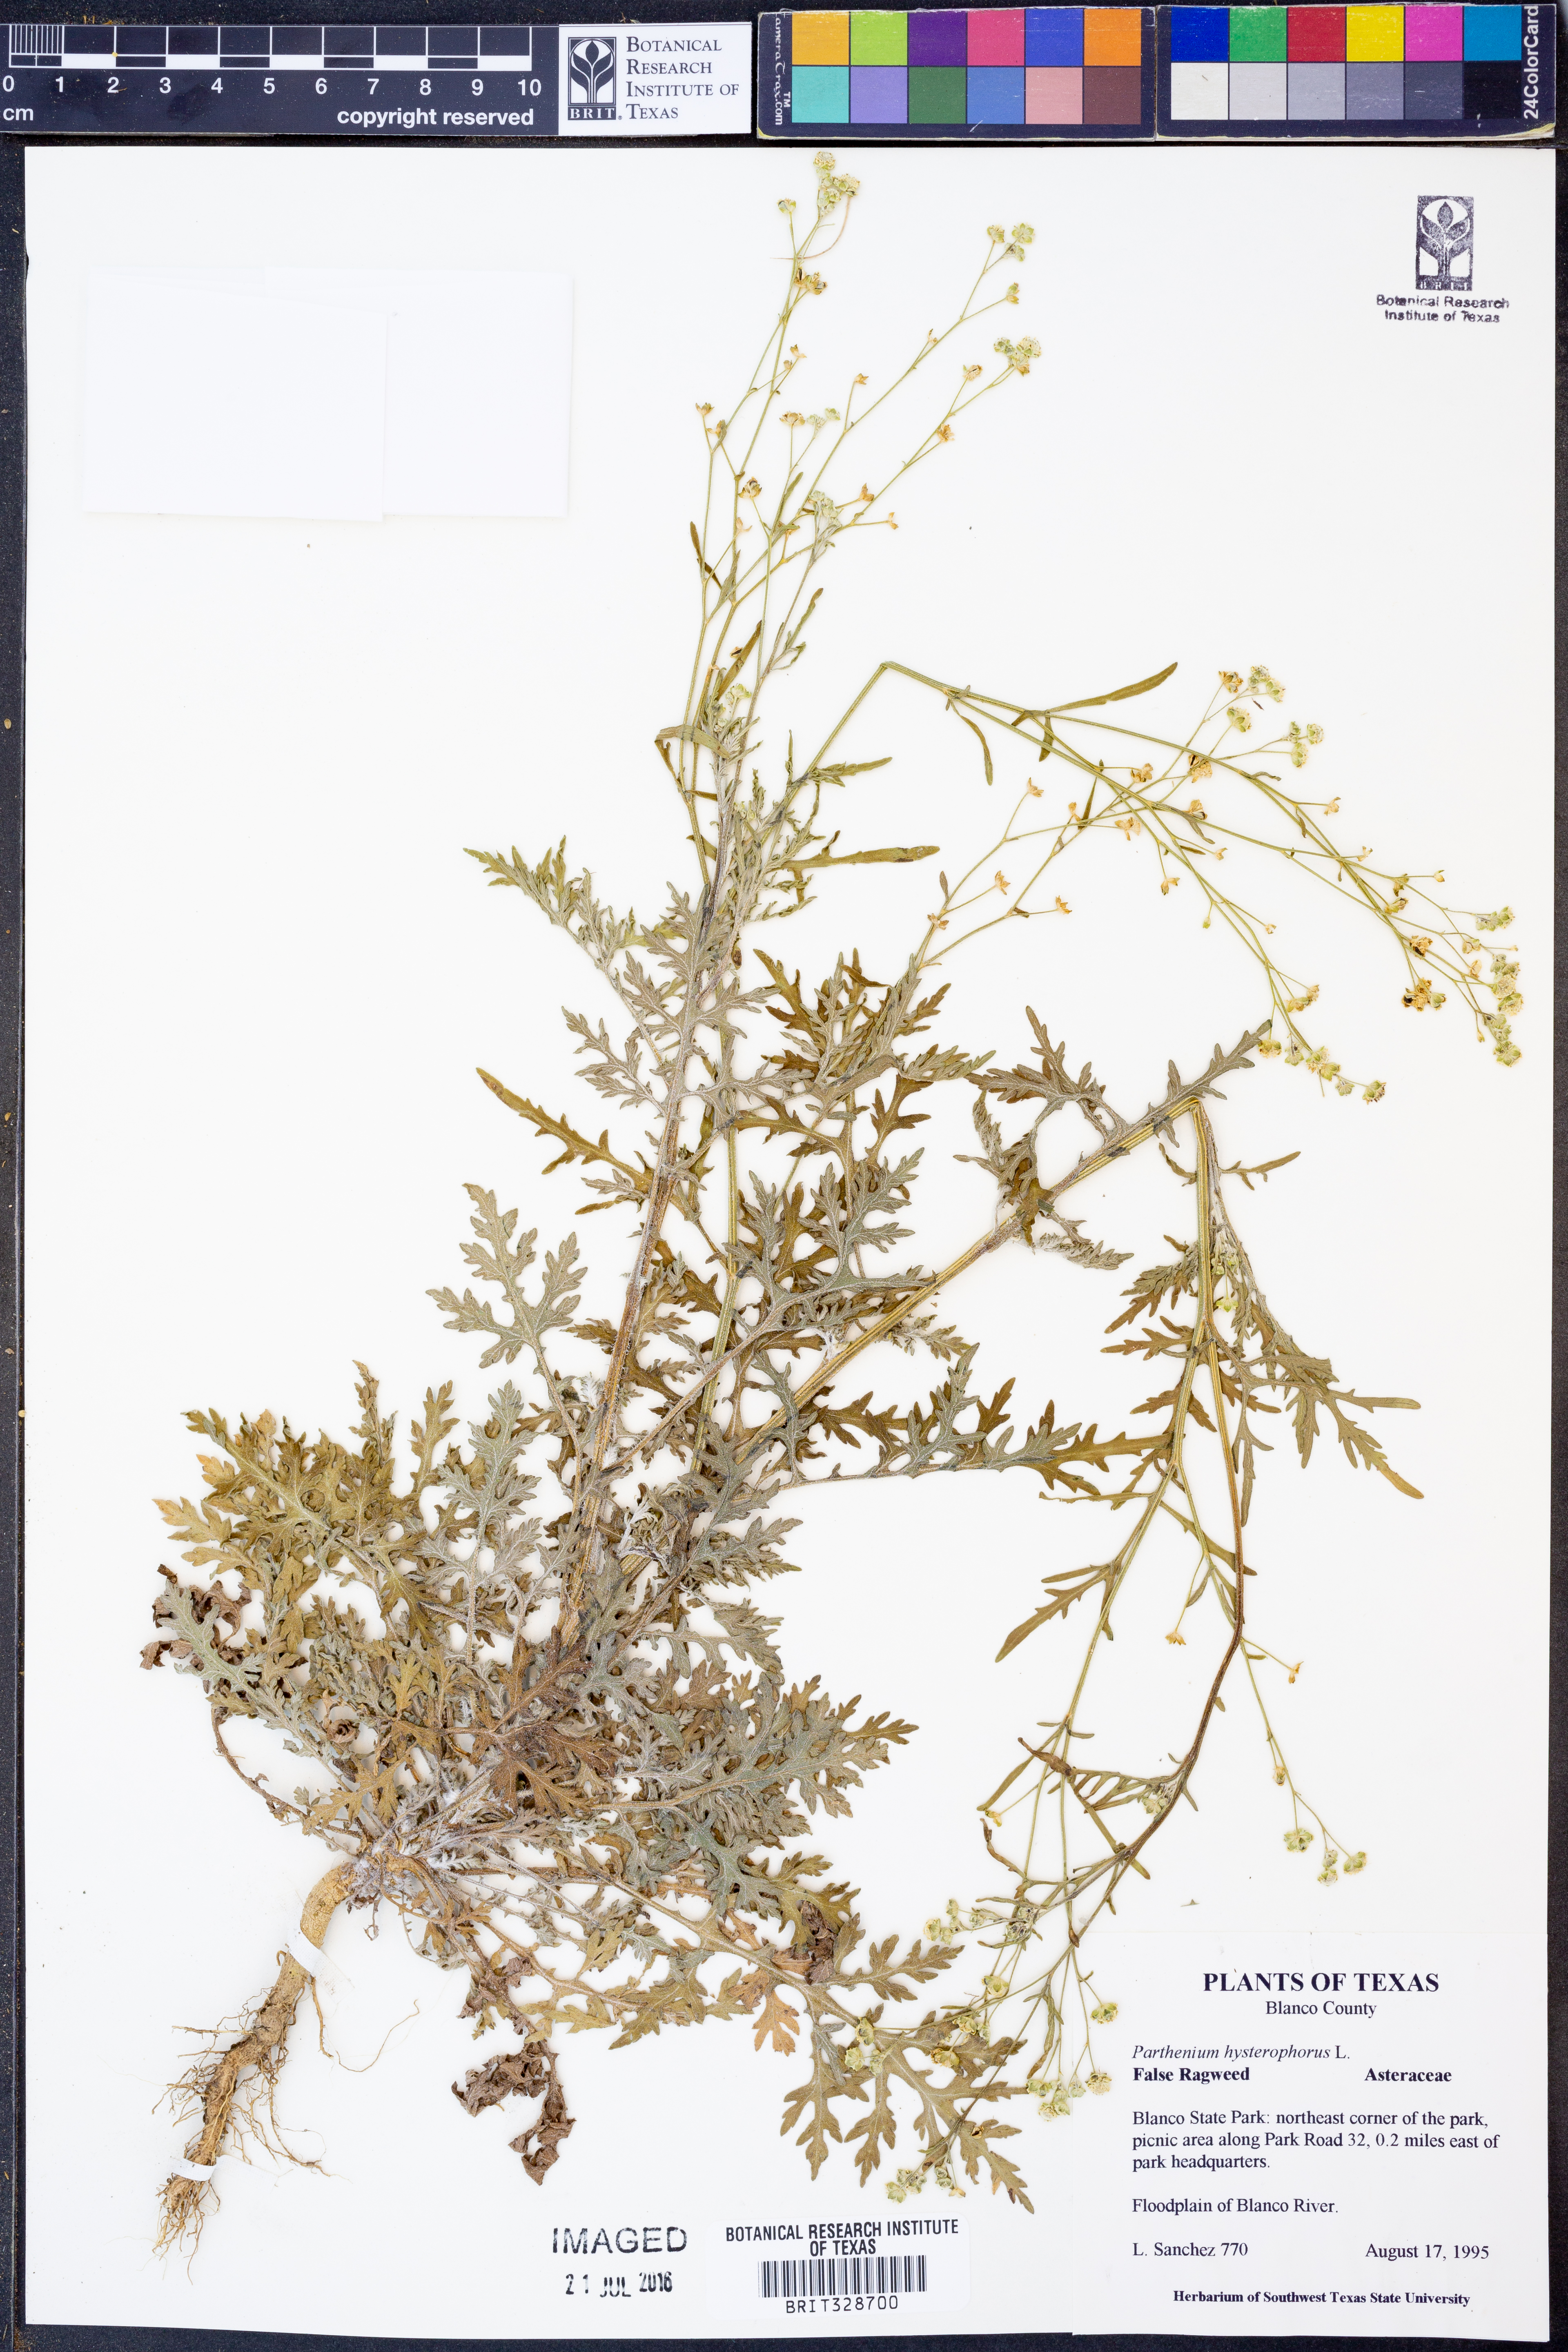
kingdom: Plantae
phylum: Tracheophyta
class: Magnoliopsida
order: Asterales
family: Asteraceae
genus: Parthenium
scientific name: Parthenium hysterophorus
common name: Santa maria feverfew
